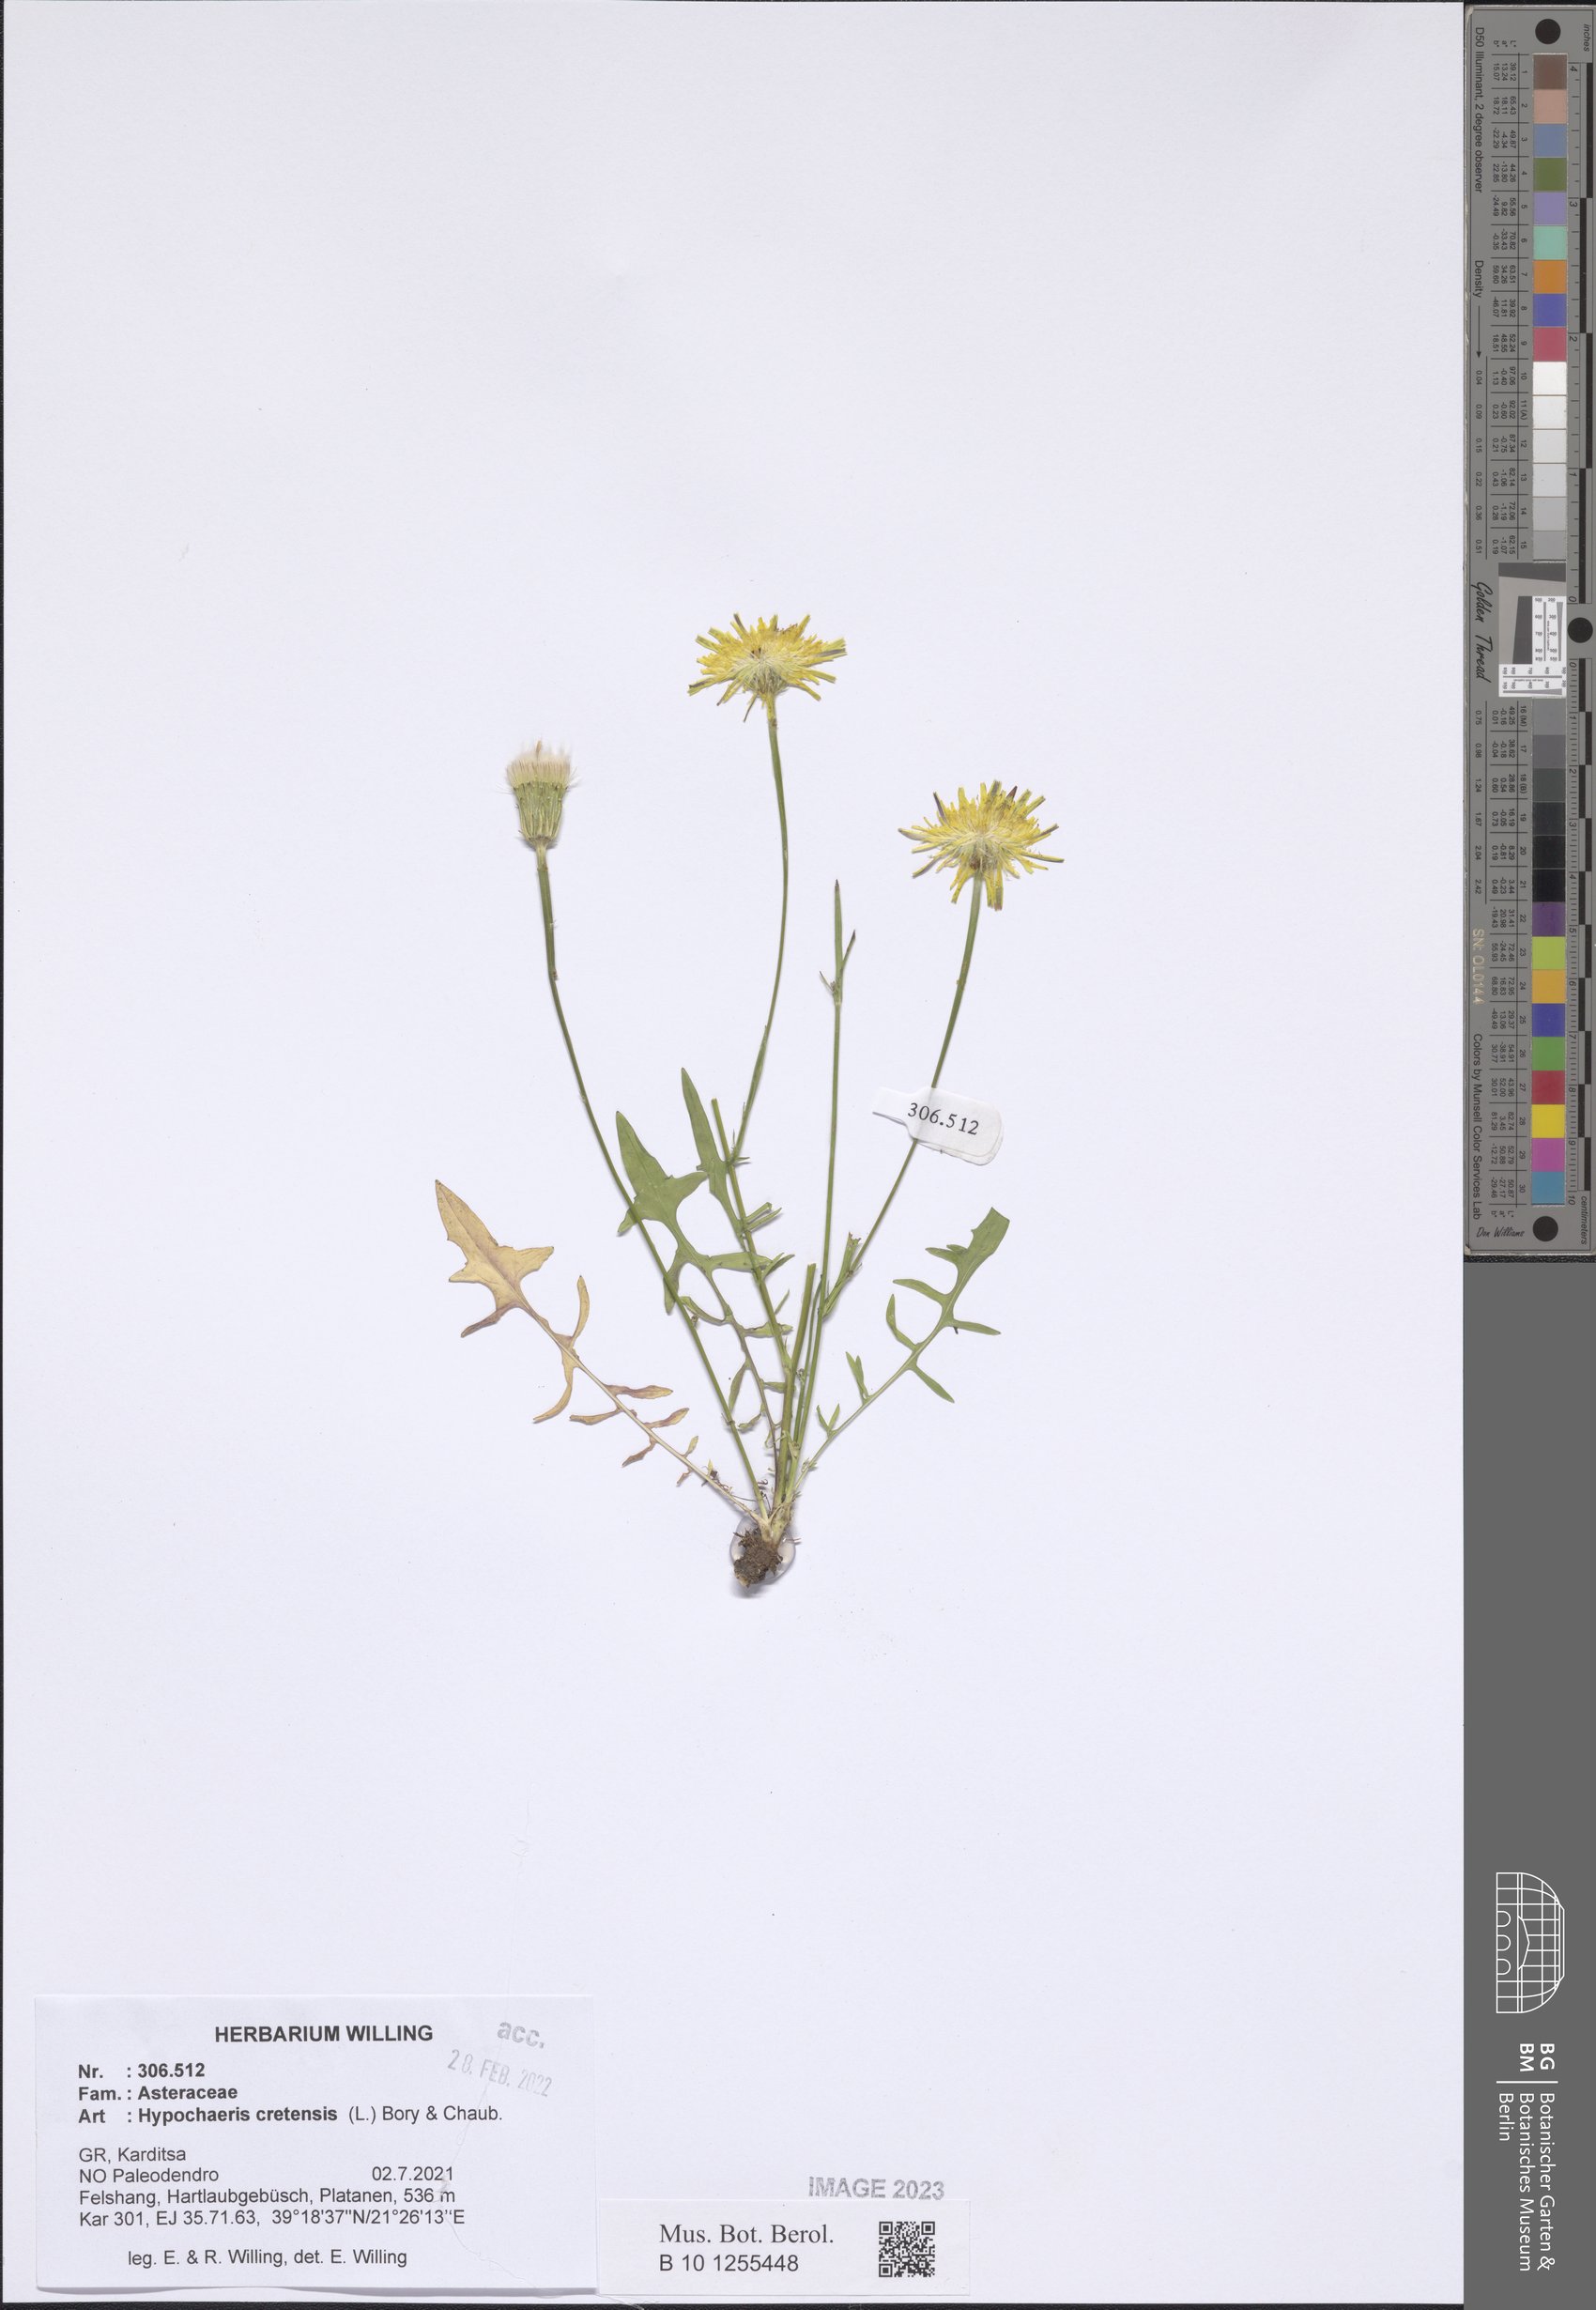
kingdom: Plantae
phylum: Tracheophyta
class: Magnoliopsida
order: Asterales
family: Asteraceae
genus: Hypochaeris
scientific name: Hypochaeris cretensis
